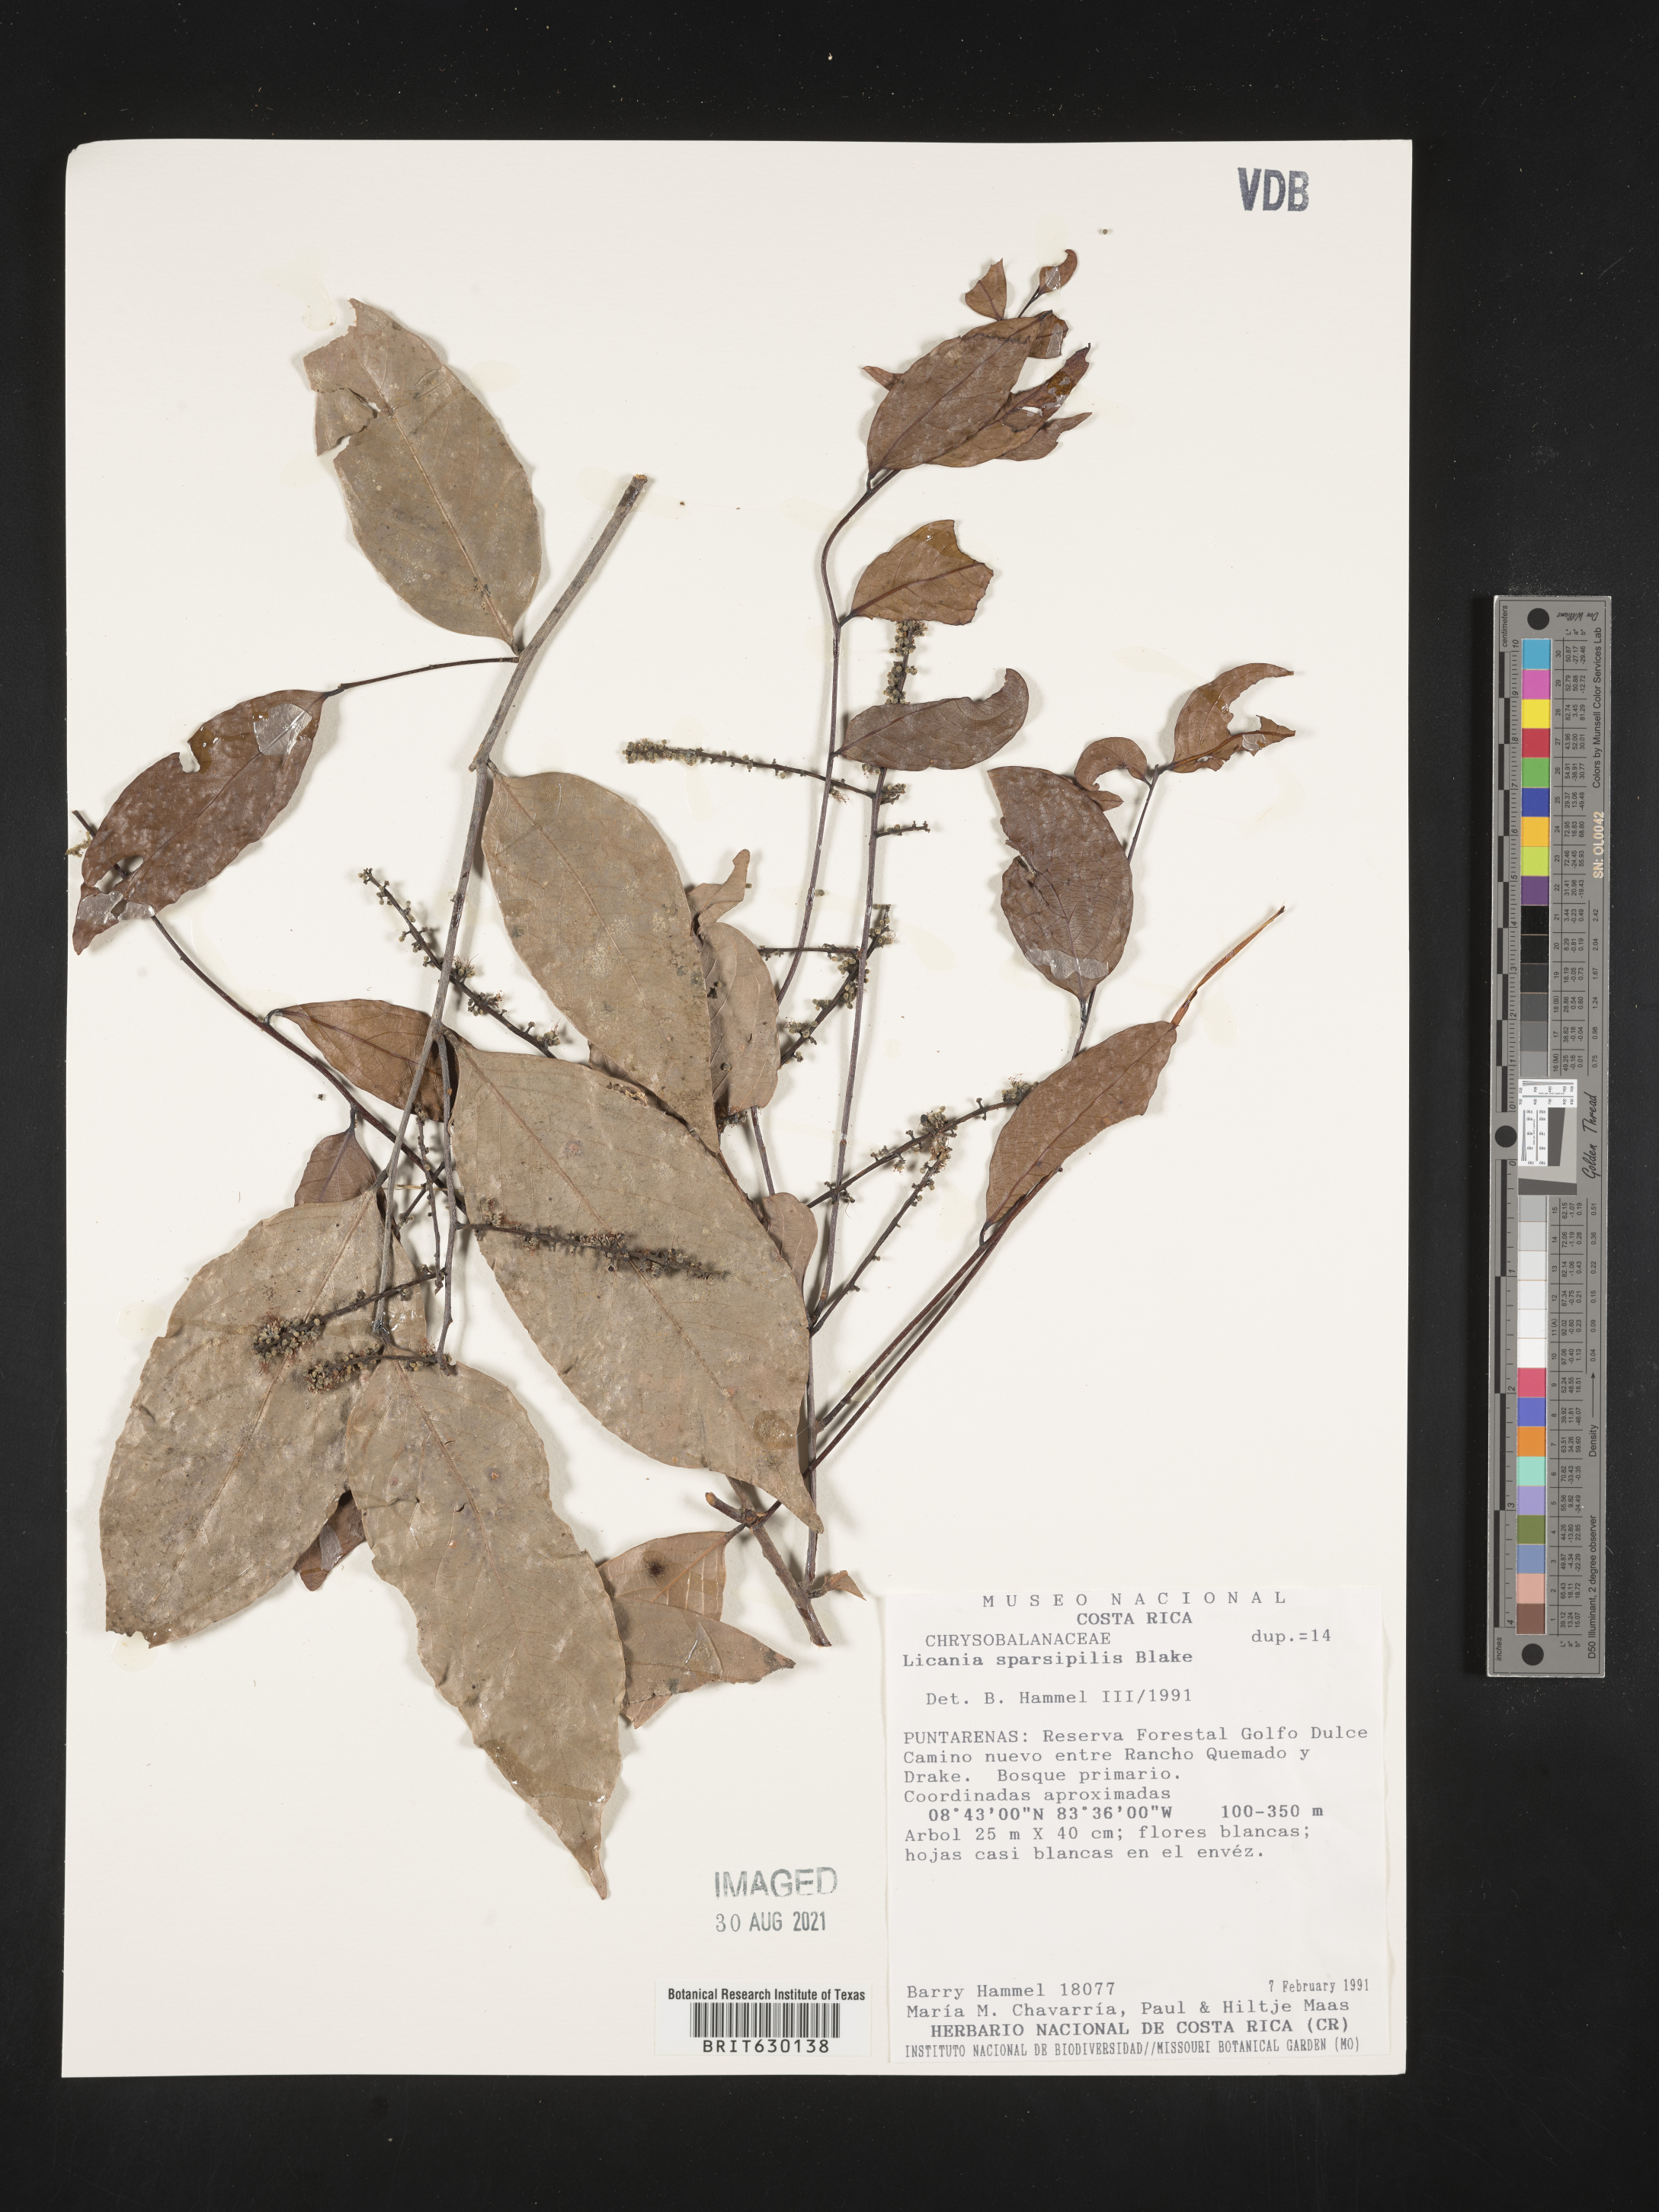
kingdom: Plantae
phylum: Tracheophyta
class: Magnoliopsida
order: Malpighiales
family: Chrysobalanaceae
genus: Leptobalanus
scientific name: Leptobalanus sparsipilis
